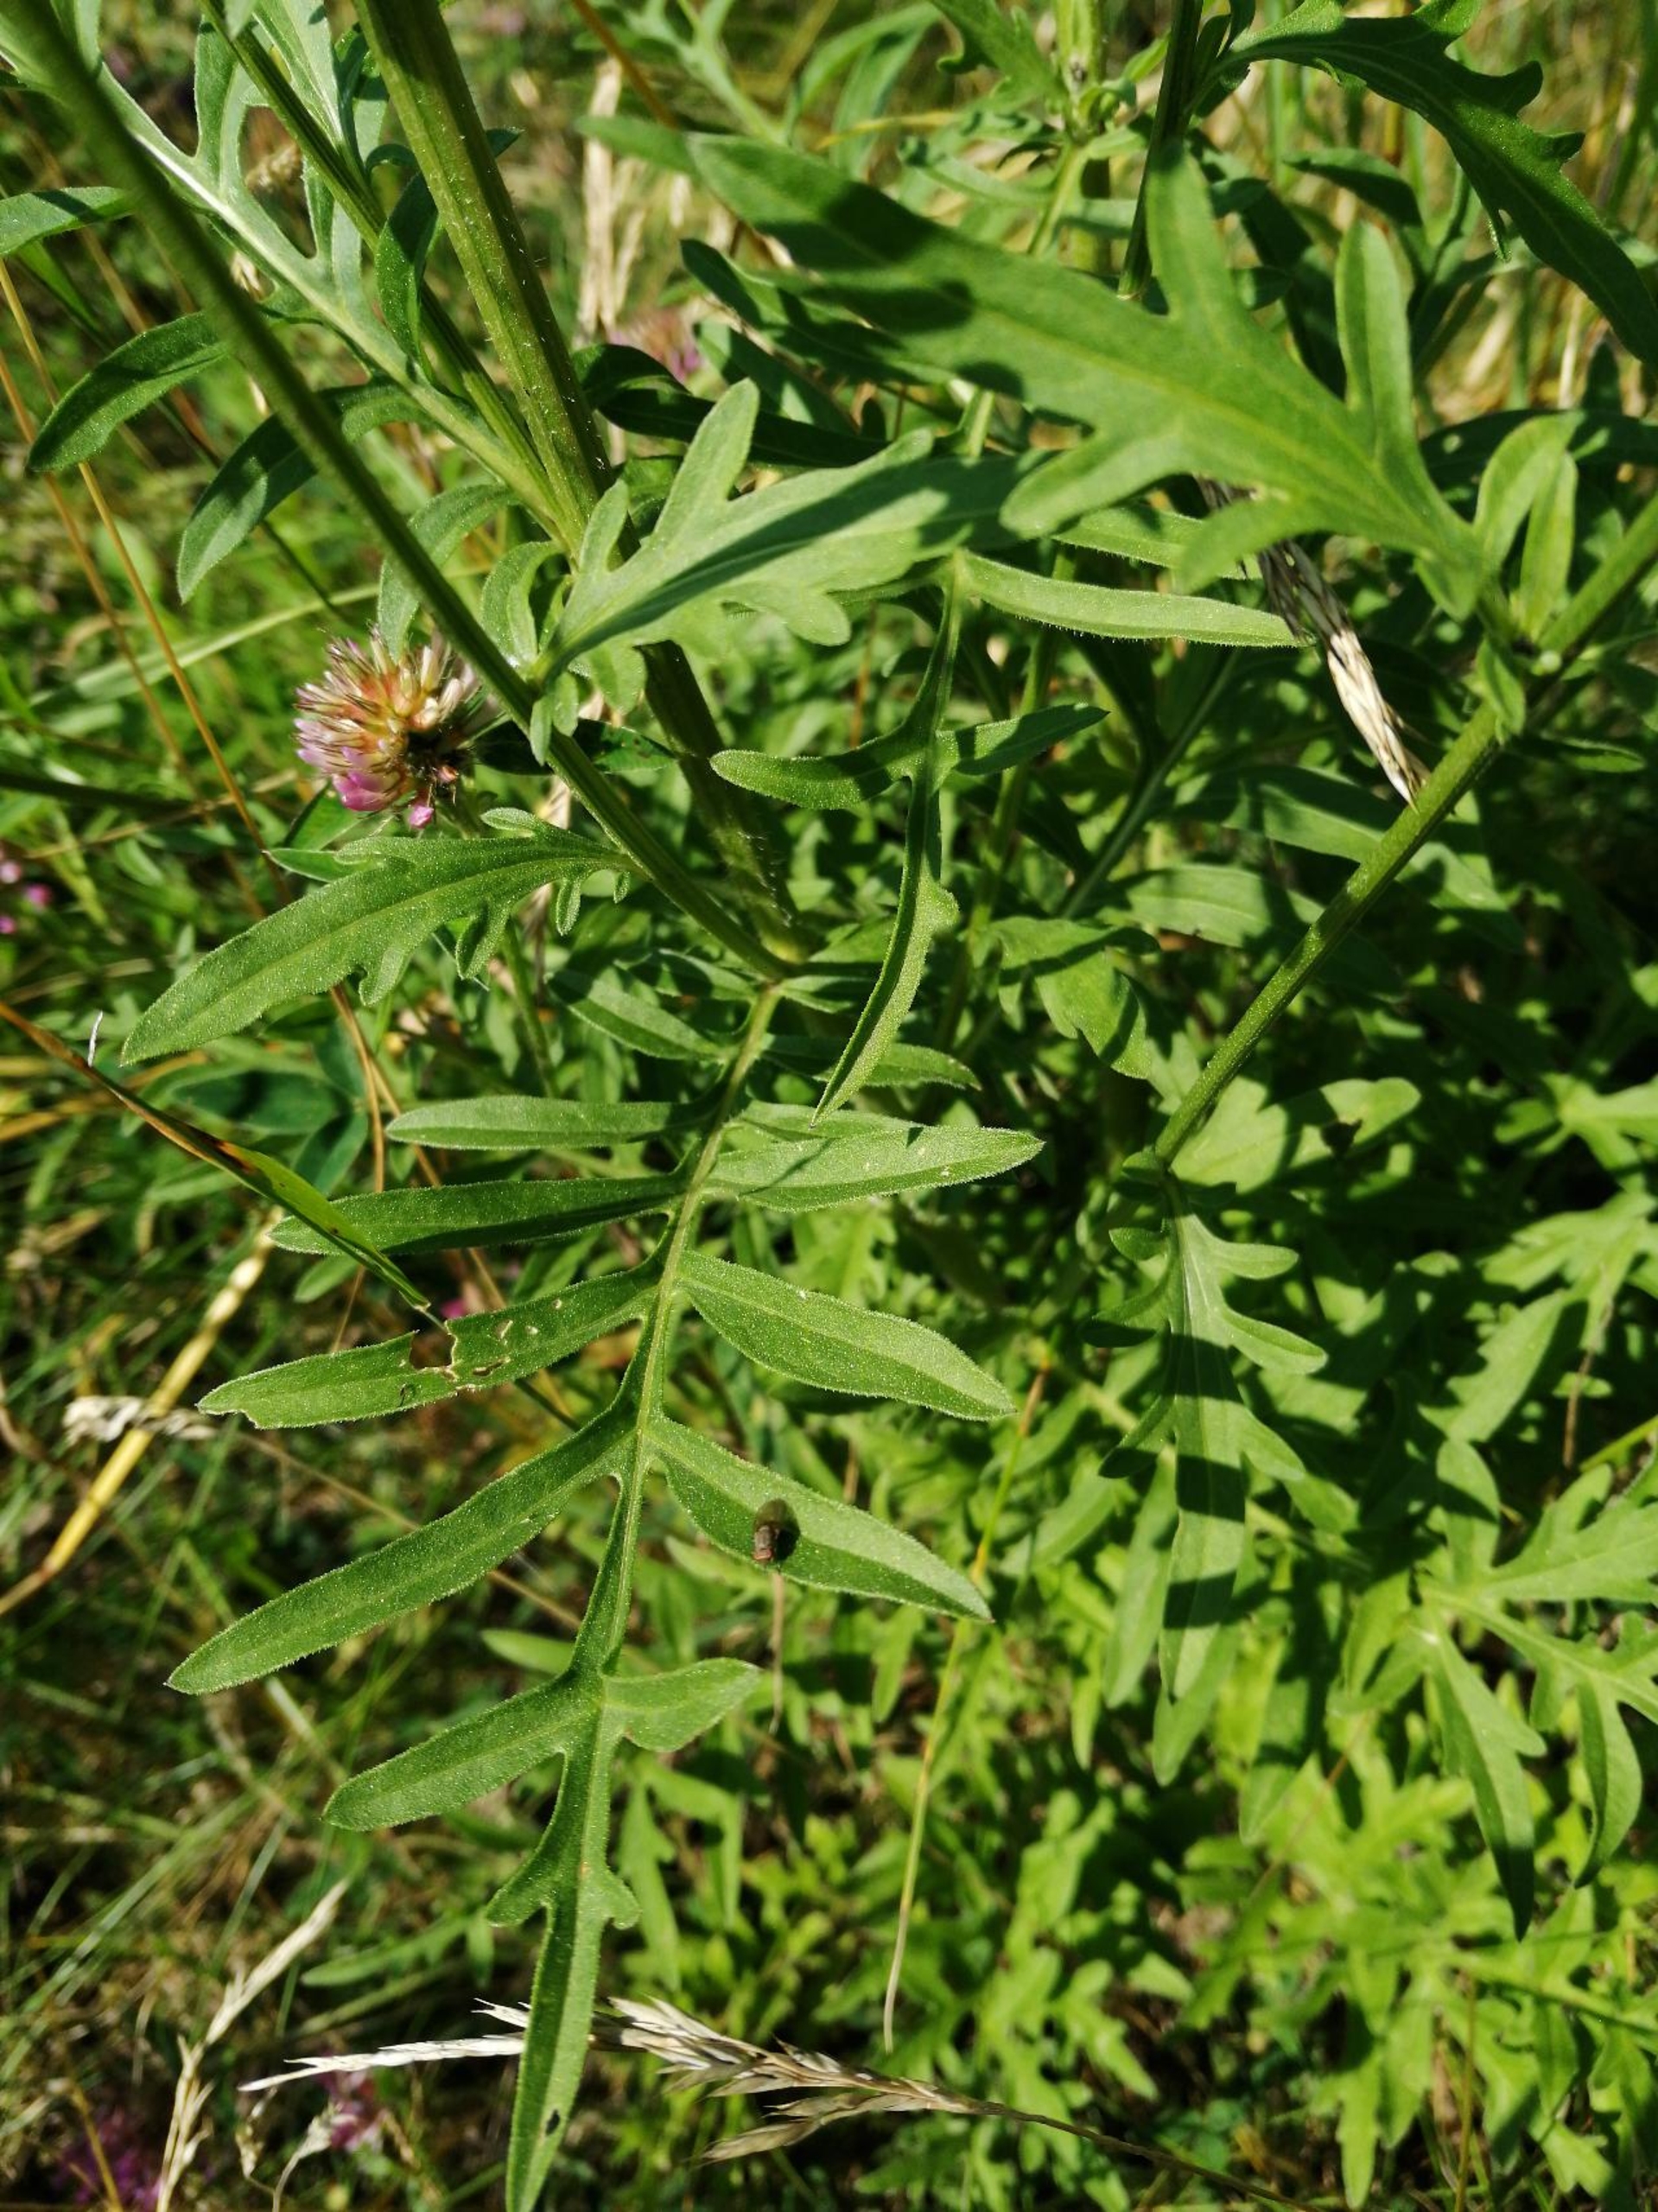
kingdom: Plantae
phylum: Tracheophyta
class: Magnoliopsida
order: Asterales
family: Asteraceae
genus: Centaurea
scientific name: Centaurea scabiosa
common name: Stor knopurt
